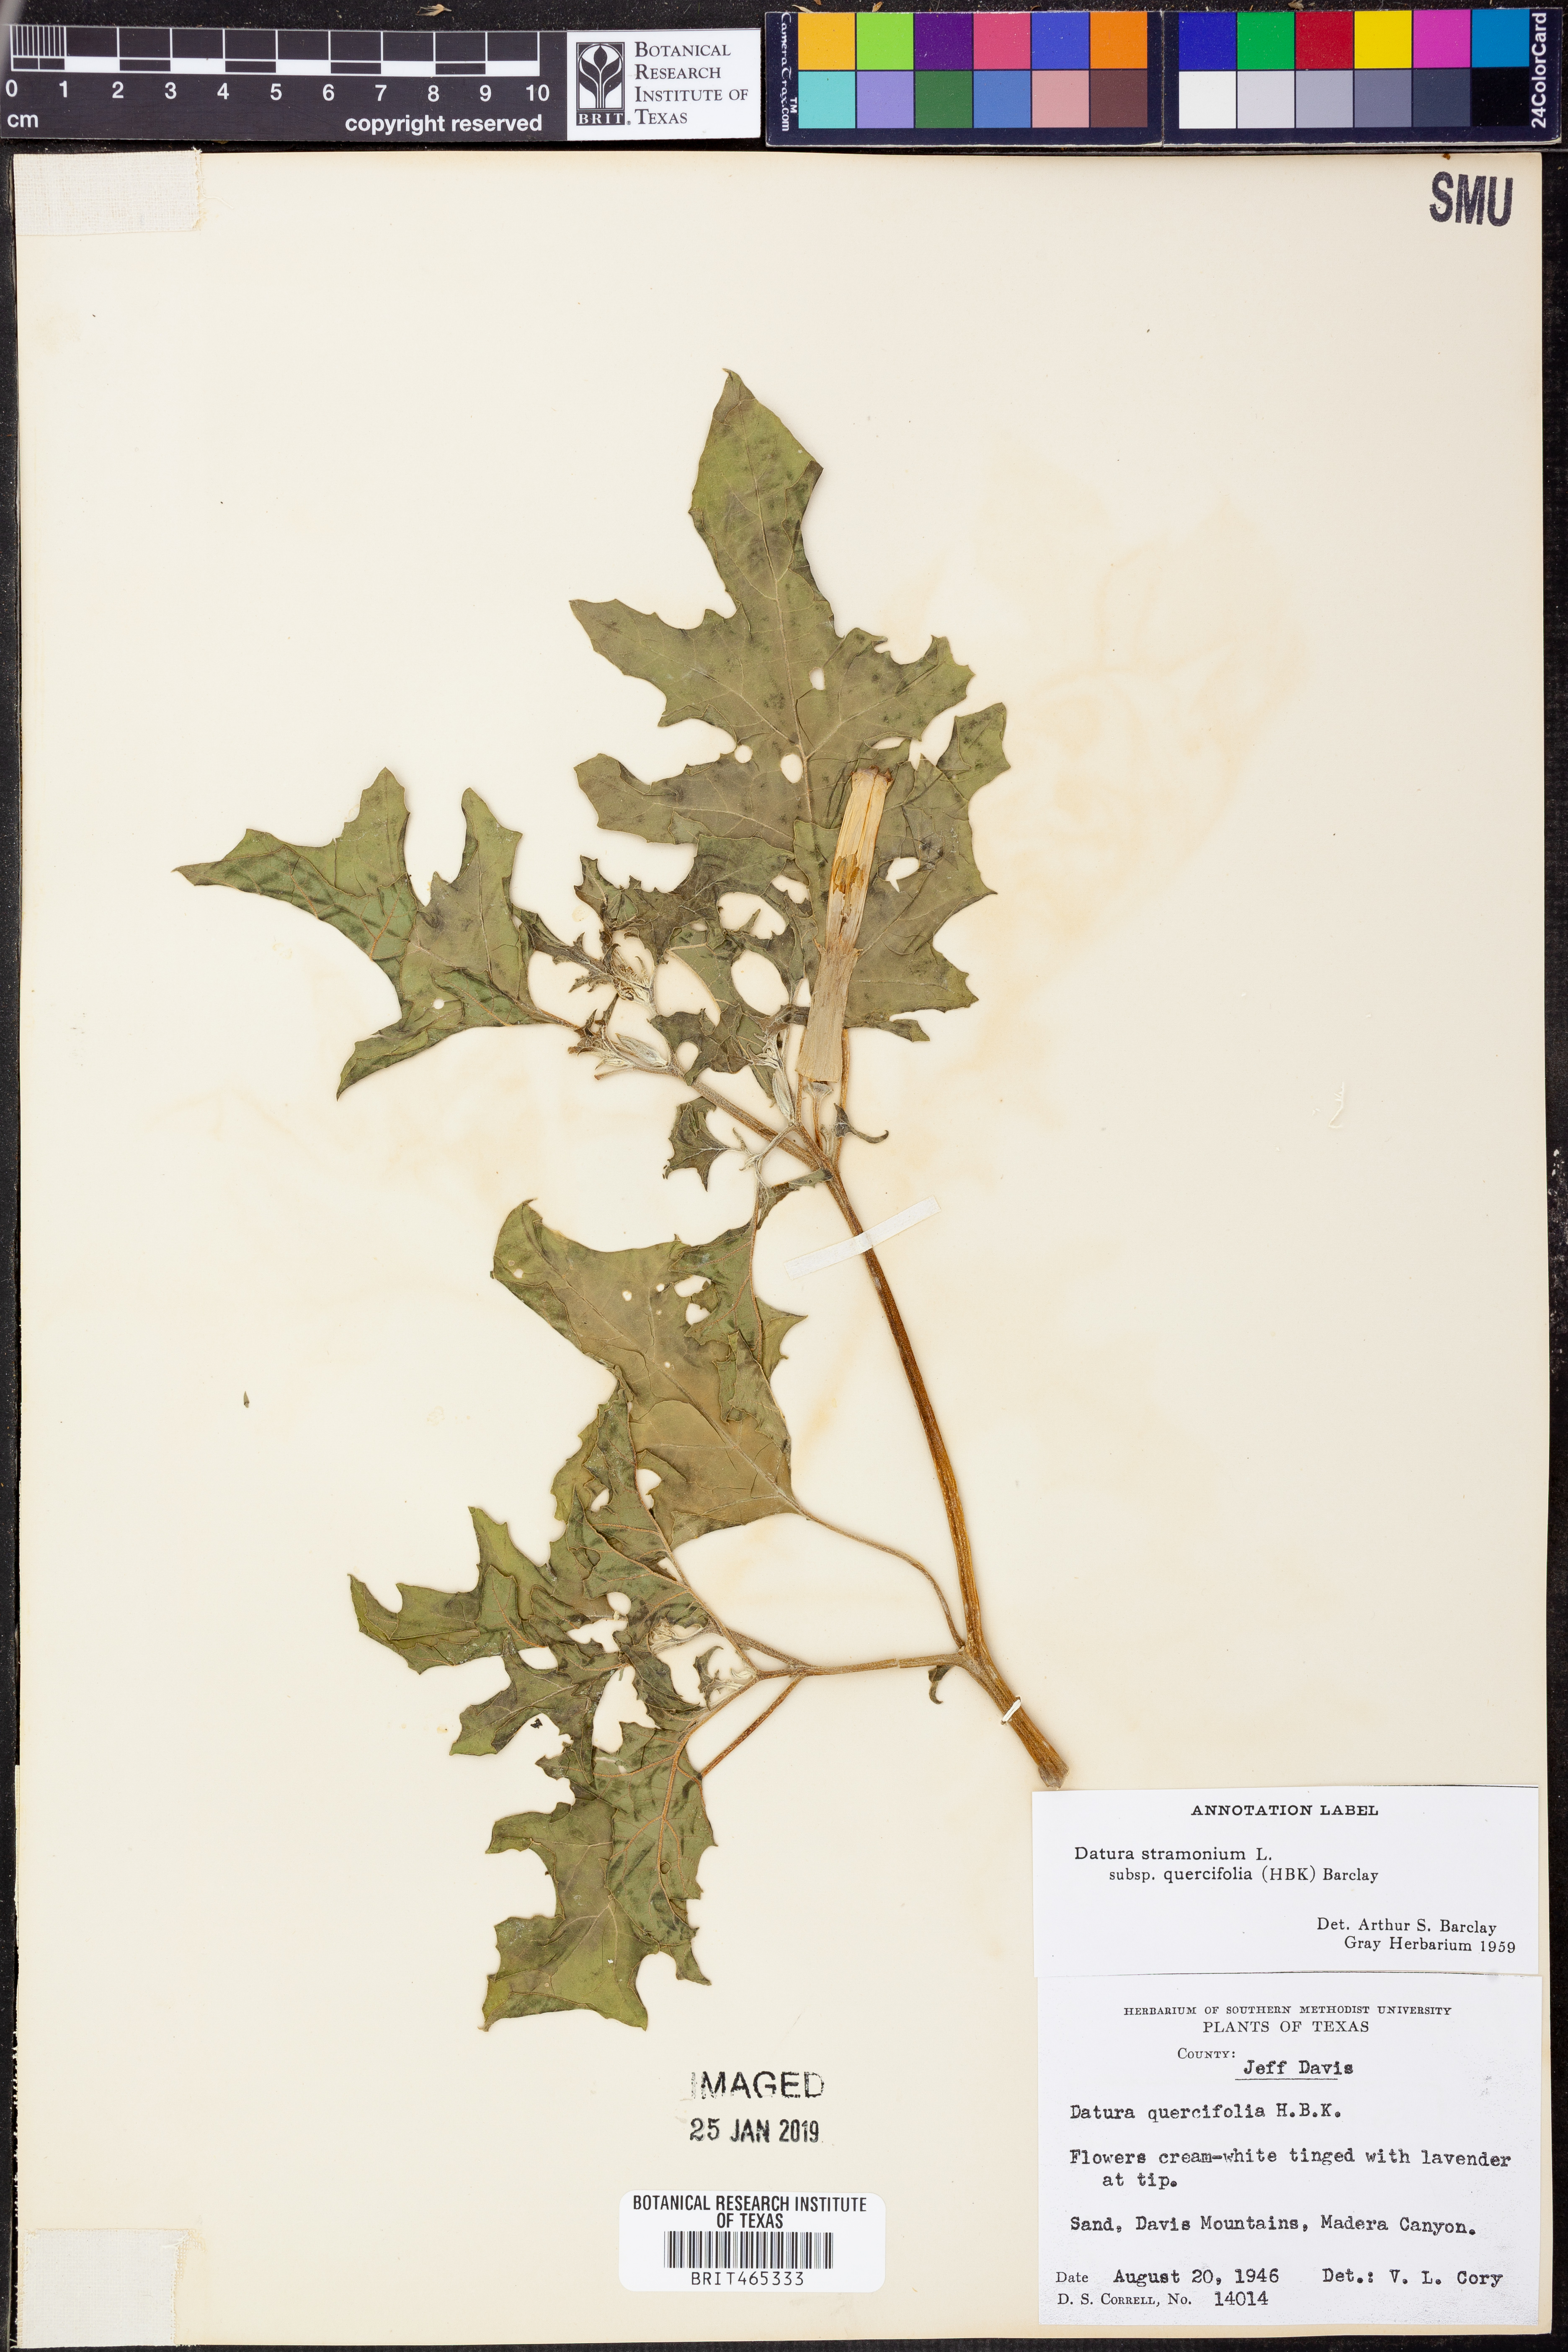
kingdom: Plantae
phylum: Tracheophyta
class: Magnoliopsida
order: Solanales
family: Solanaceae
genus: Datura
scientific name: Datura stramonium
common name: Thorn-apple
